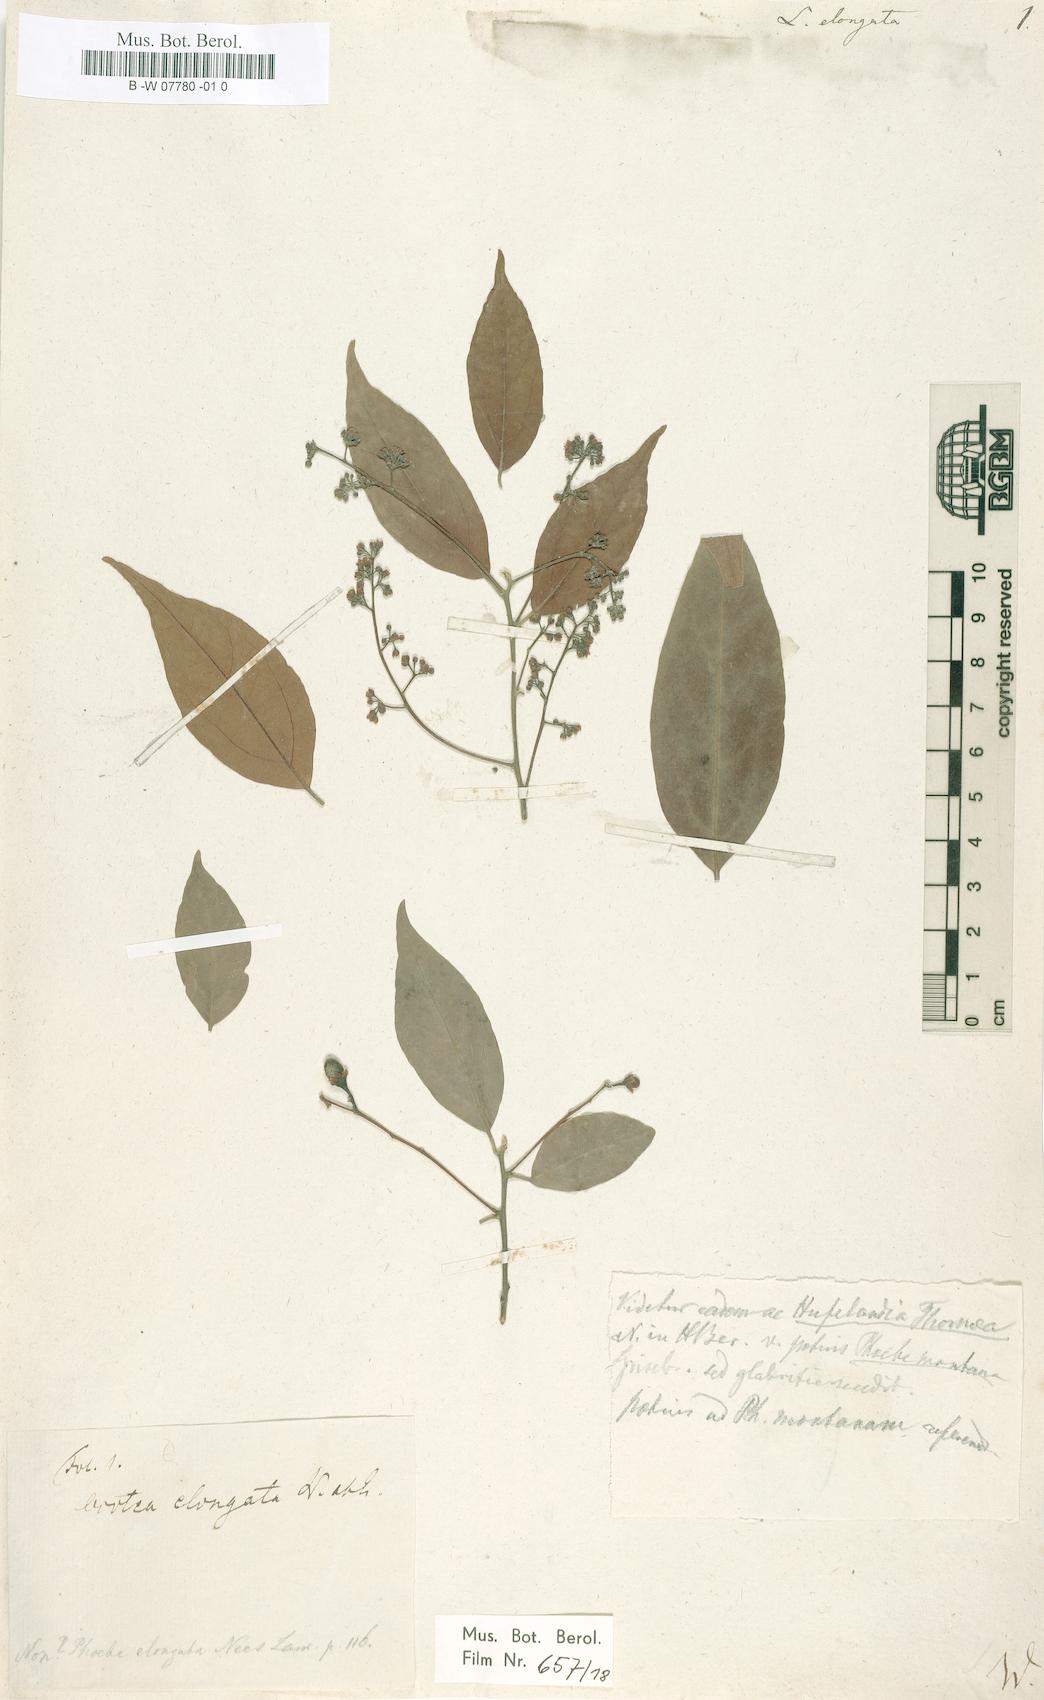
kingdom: Plantae
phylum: Tracheophyta
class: Magnoliopsida
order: Laurales
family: Lauraceae
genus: Damburneya
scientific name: Damburneya patens
